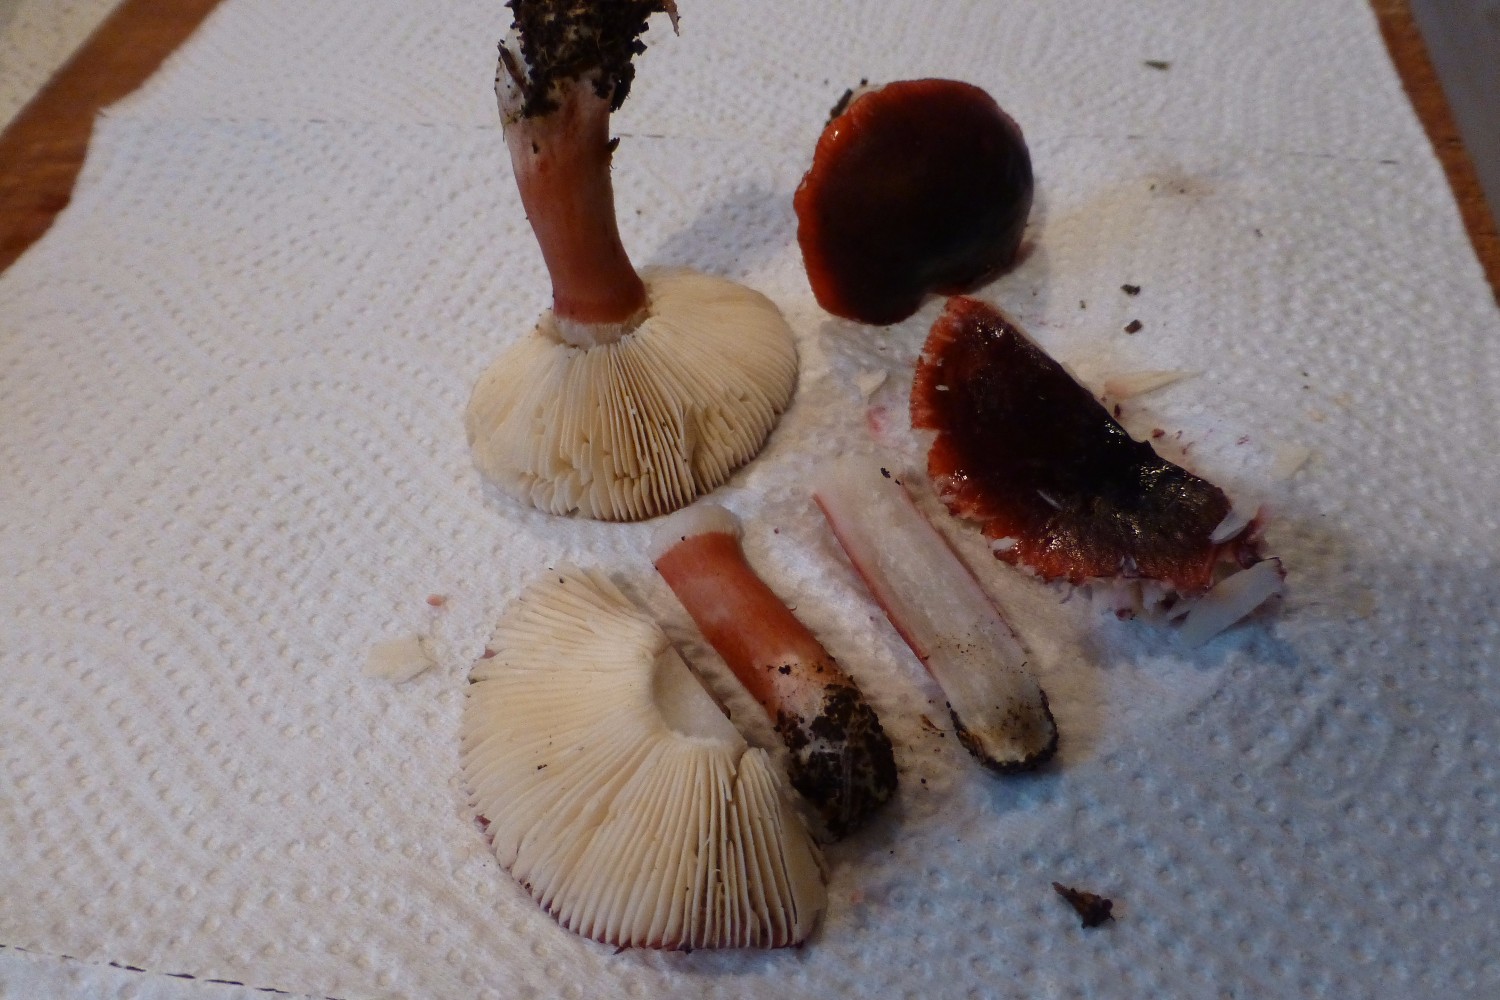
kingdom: Fungi
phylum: Basidiomycota
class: Agaricomycetes
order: Russulales
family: Russulaceae
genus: Russula
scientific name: Russula queletii
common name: Quélets skørhat
